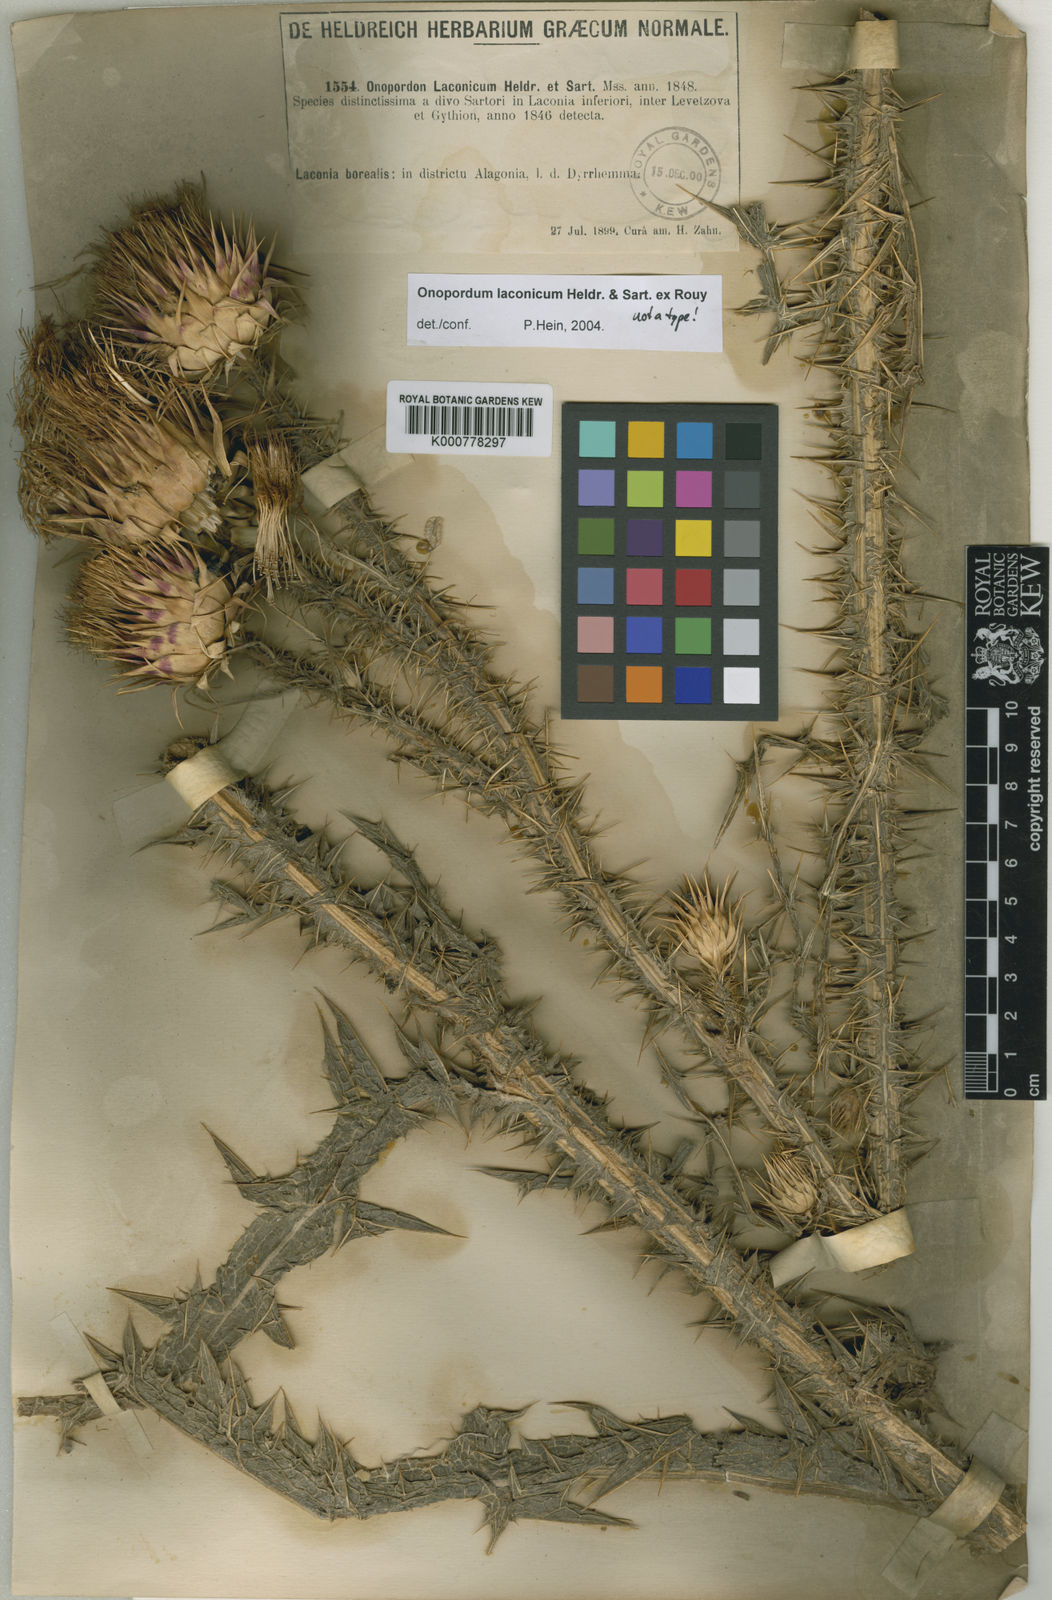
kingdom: Plantae
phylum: Tracheophyta
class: Magnoliopsida
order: Asterales
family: Asteraceae
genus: Onopordum
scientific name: Onopordum laconicum
